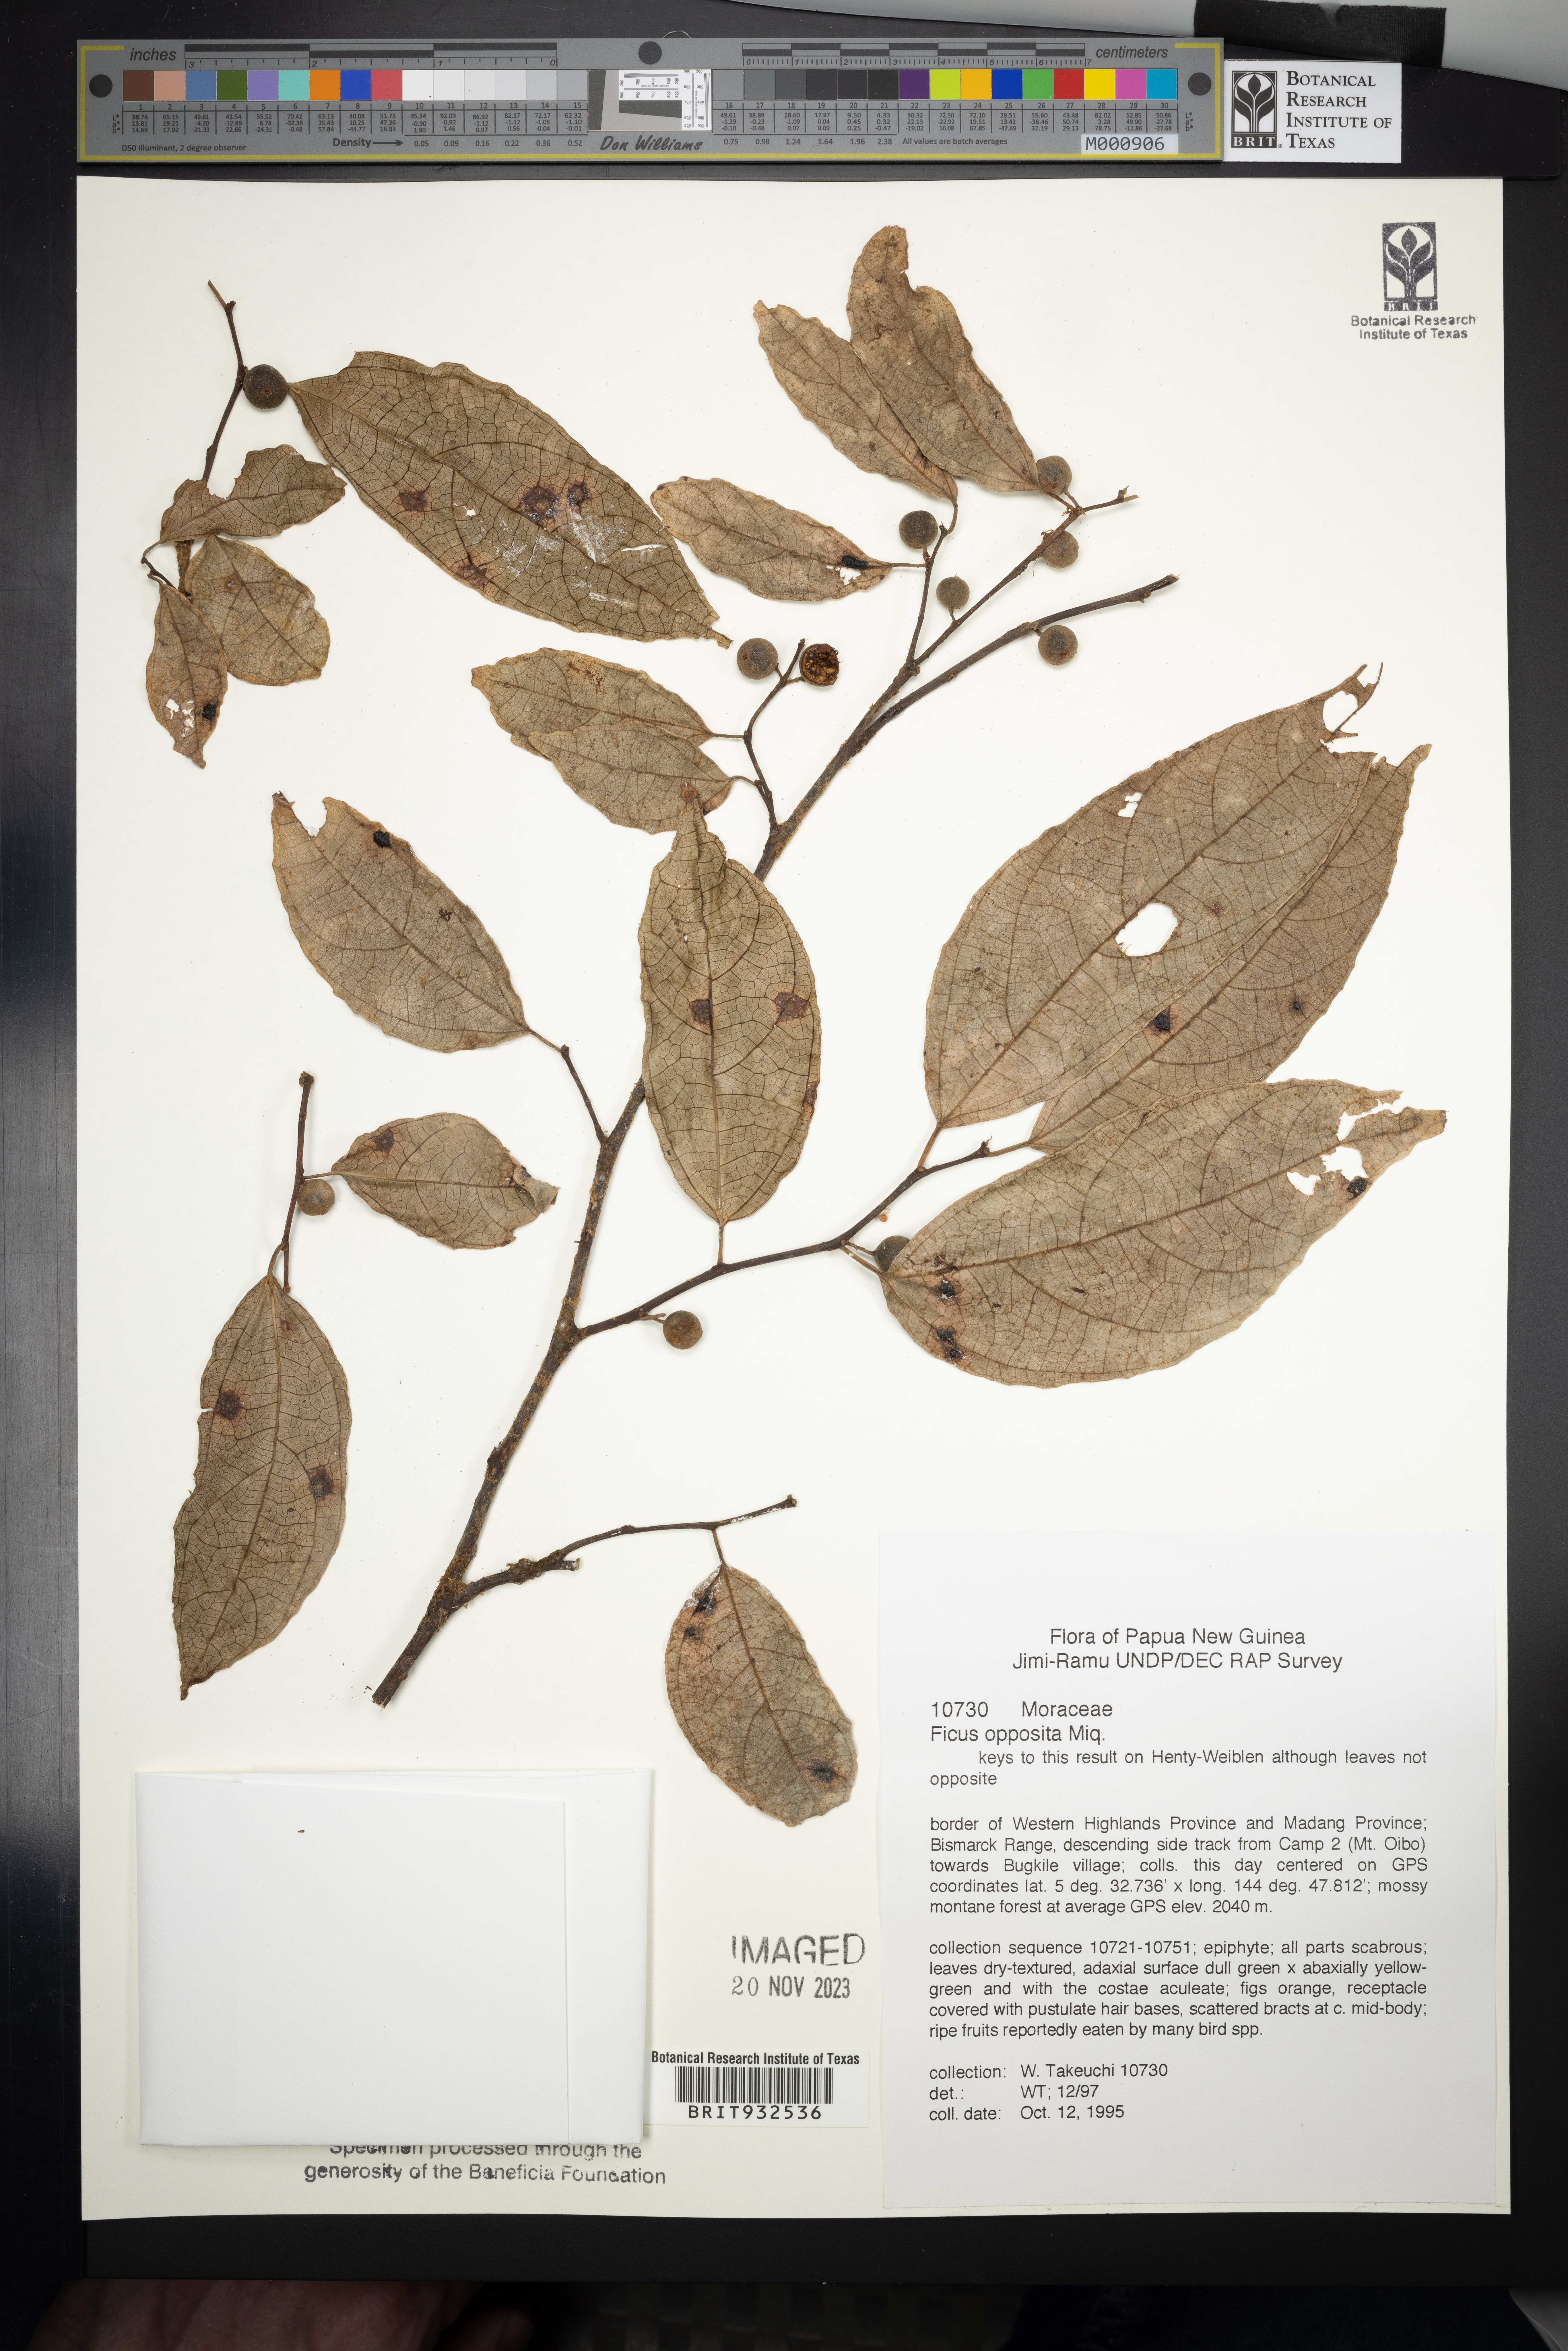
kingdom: Plantae
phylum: Tracheophyta
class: Magnoliopsida
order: Rosales
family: Moraceae
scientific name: Moraceae
